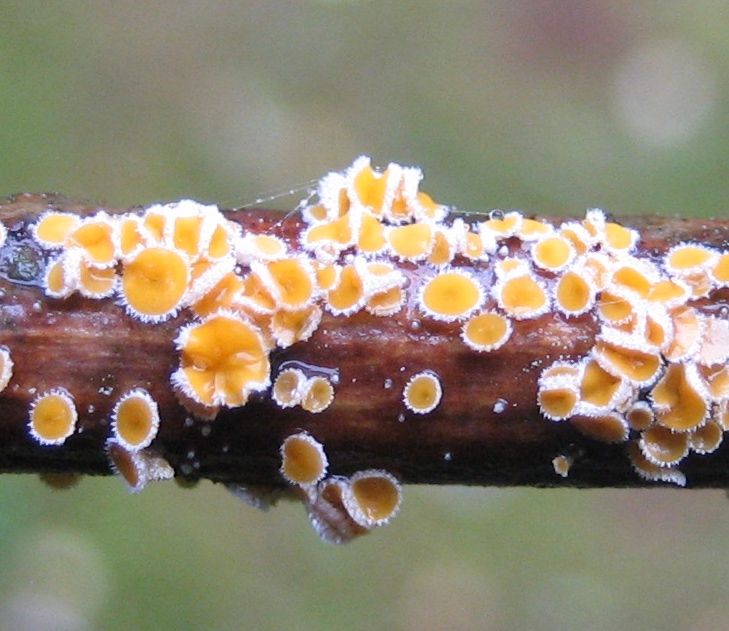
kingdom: Fungi
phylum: Ascomycota
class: Leotiomycetes
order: Helotiales
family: Lachnaceae
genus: Capitotricha
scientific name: Capitotricha bicolor
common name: prægtig frynseskive
